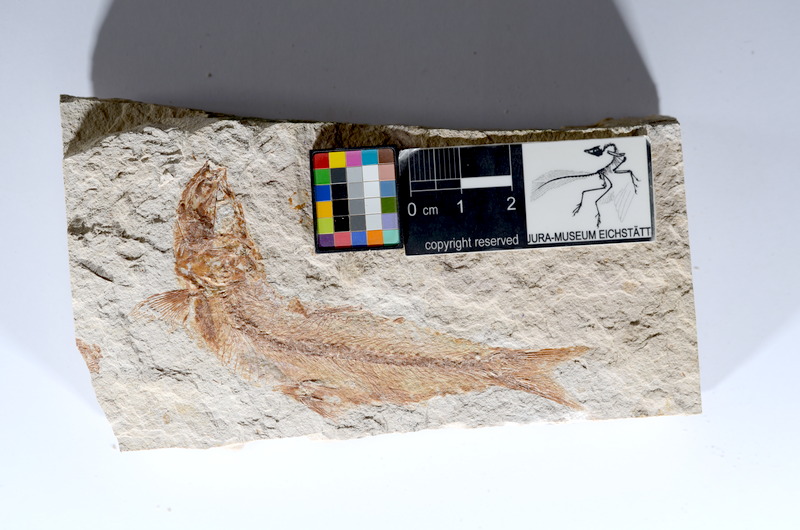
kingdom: Animalia
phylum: Chordata
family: Ascalaboidae
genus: Tharsis
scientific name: Tharsis dubius
